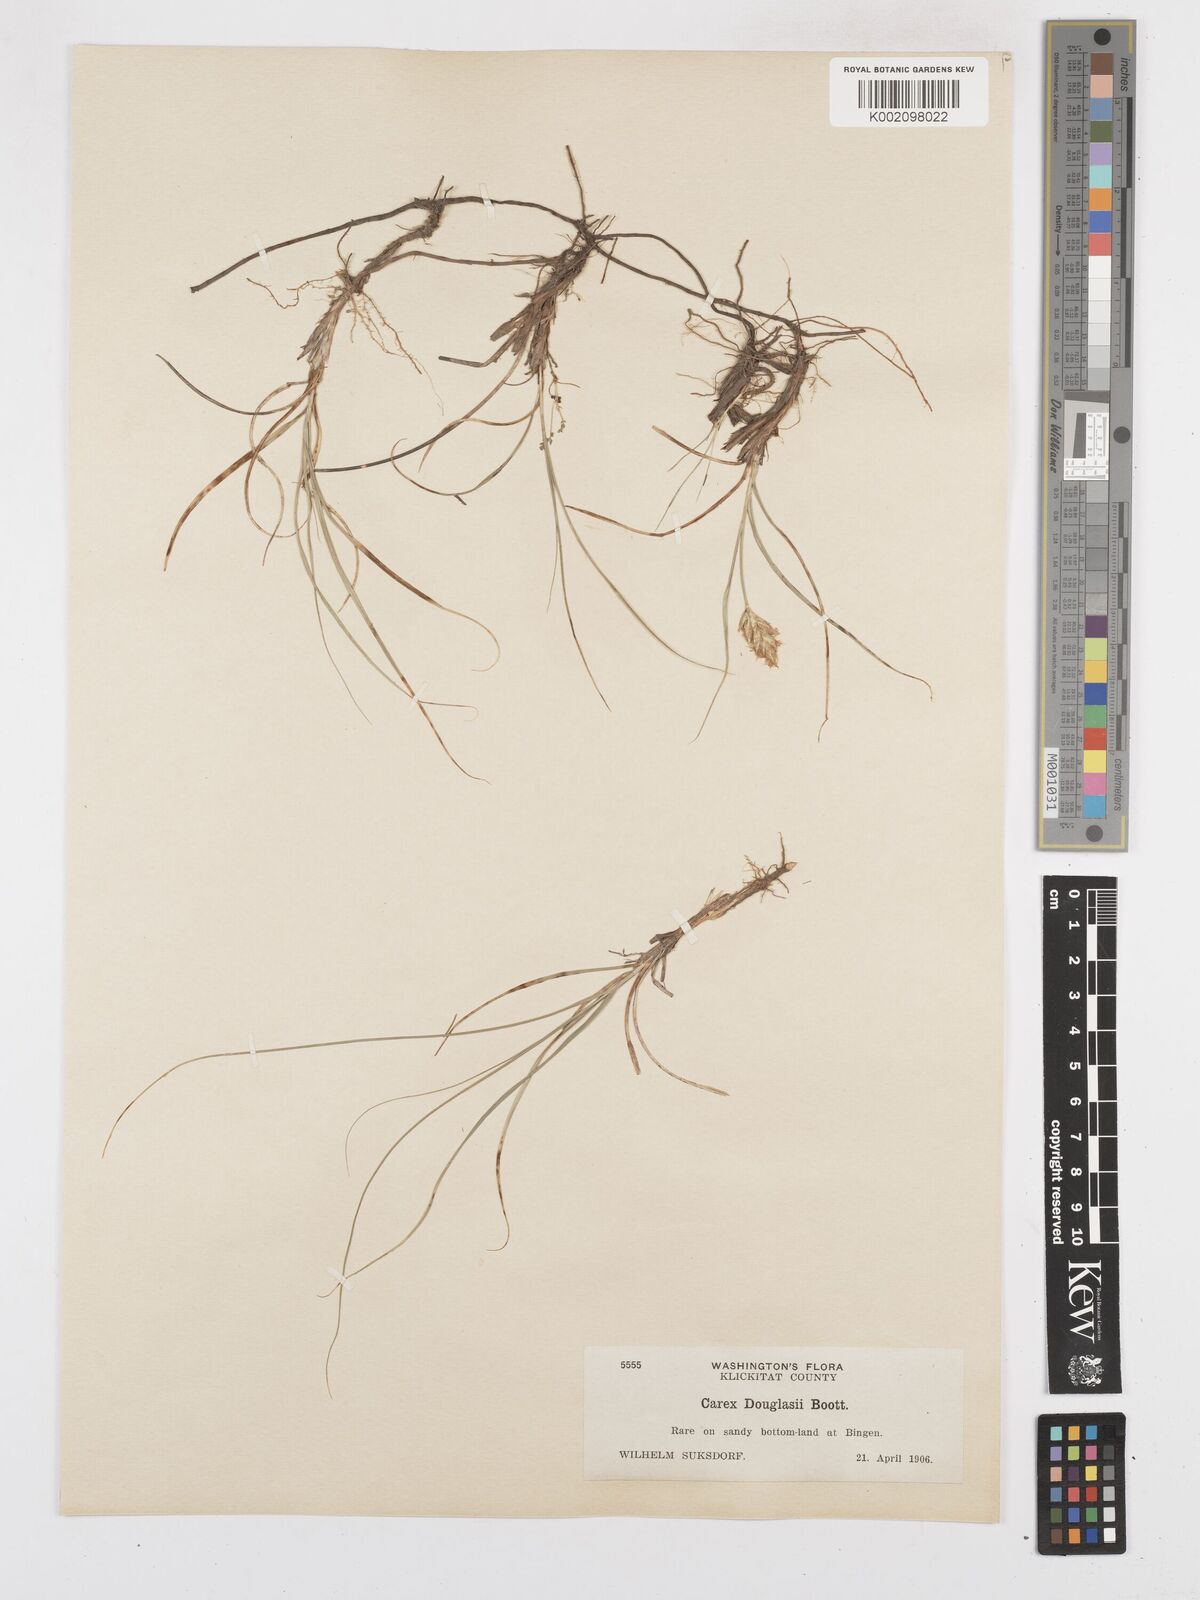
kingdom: Plantae
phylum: Tracheophyta
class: Liliopsida
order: Poales
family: Cyperaceae
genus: Carex
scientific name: Carex douglasii
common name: Douglas' sedge
